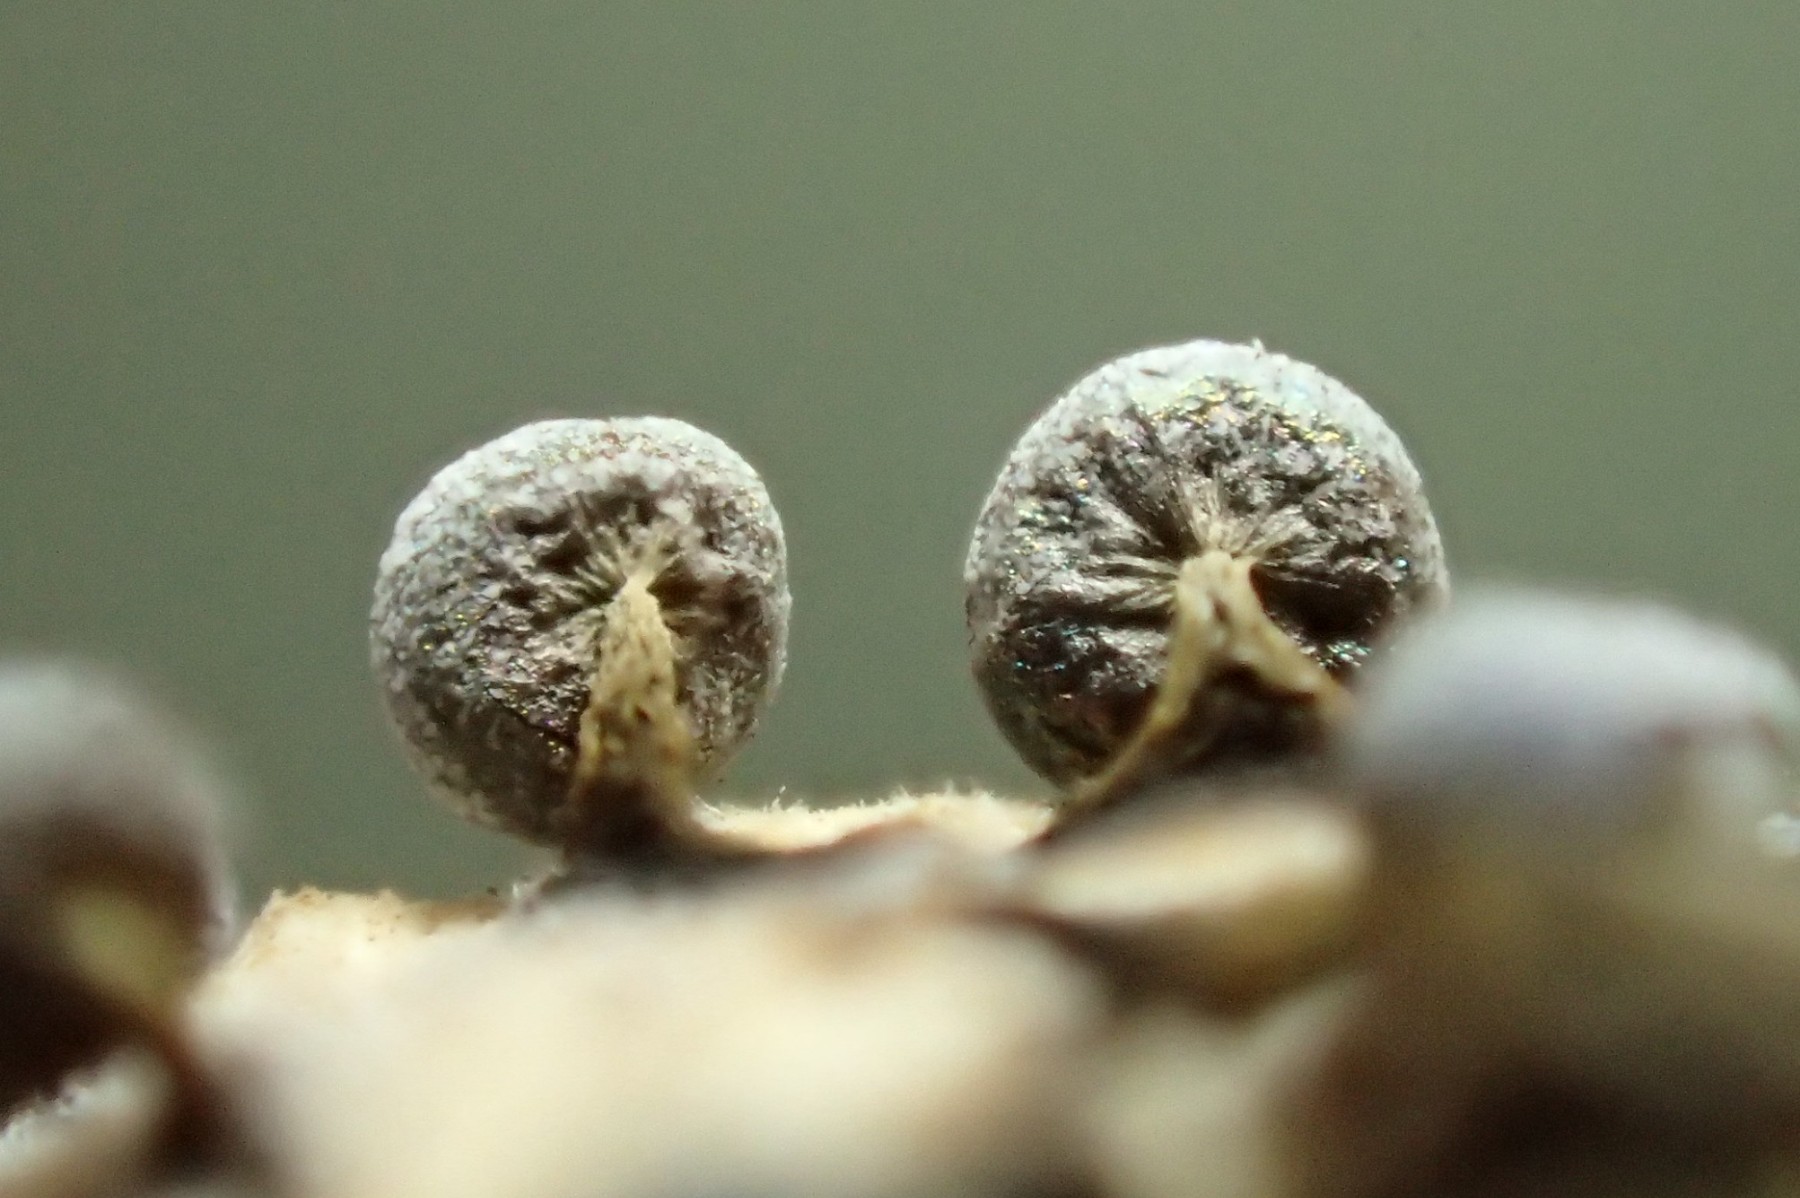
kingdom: Protozoa
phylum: Mycetozoa
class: Myxomycetes
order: Physarales
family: Physaraceae
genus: Physarum
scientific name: Physarum leucophaeum
